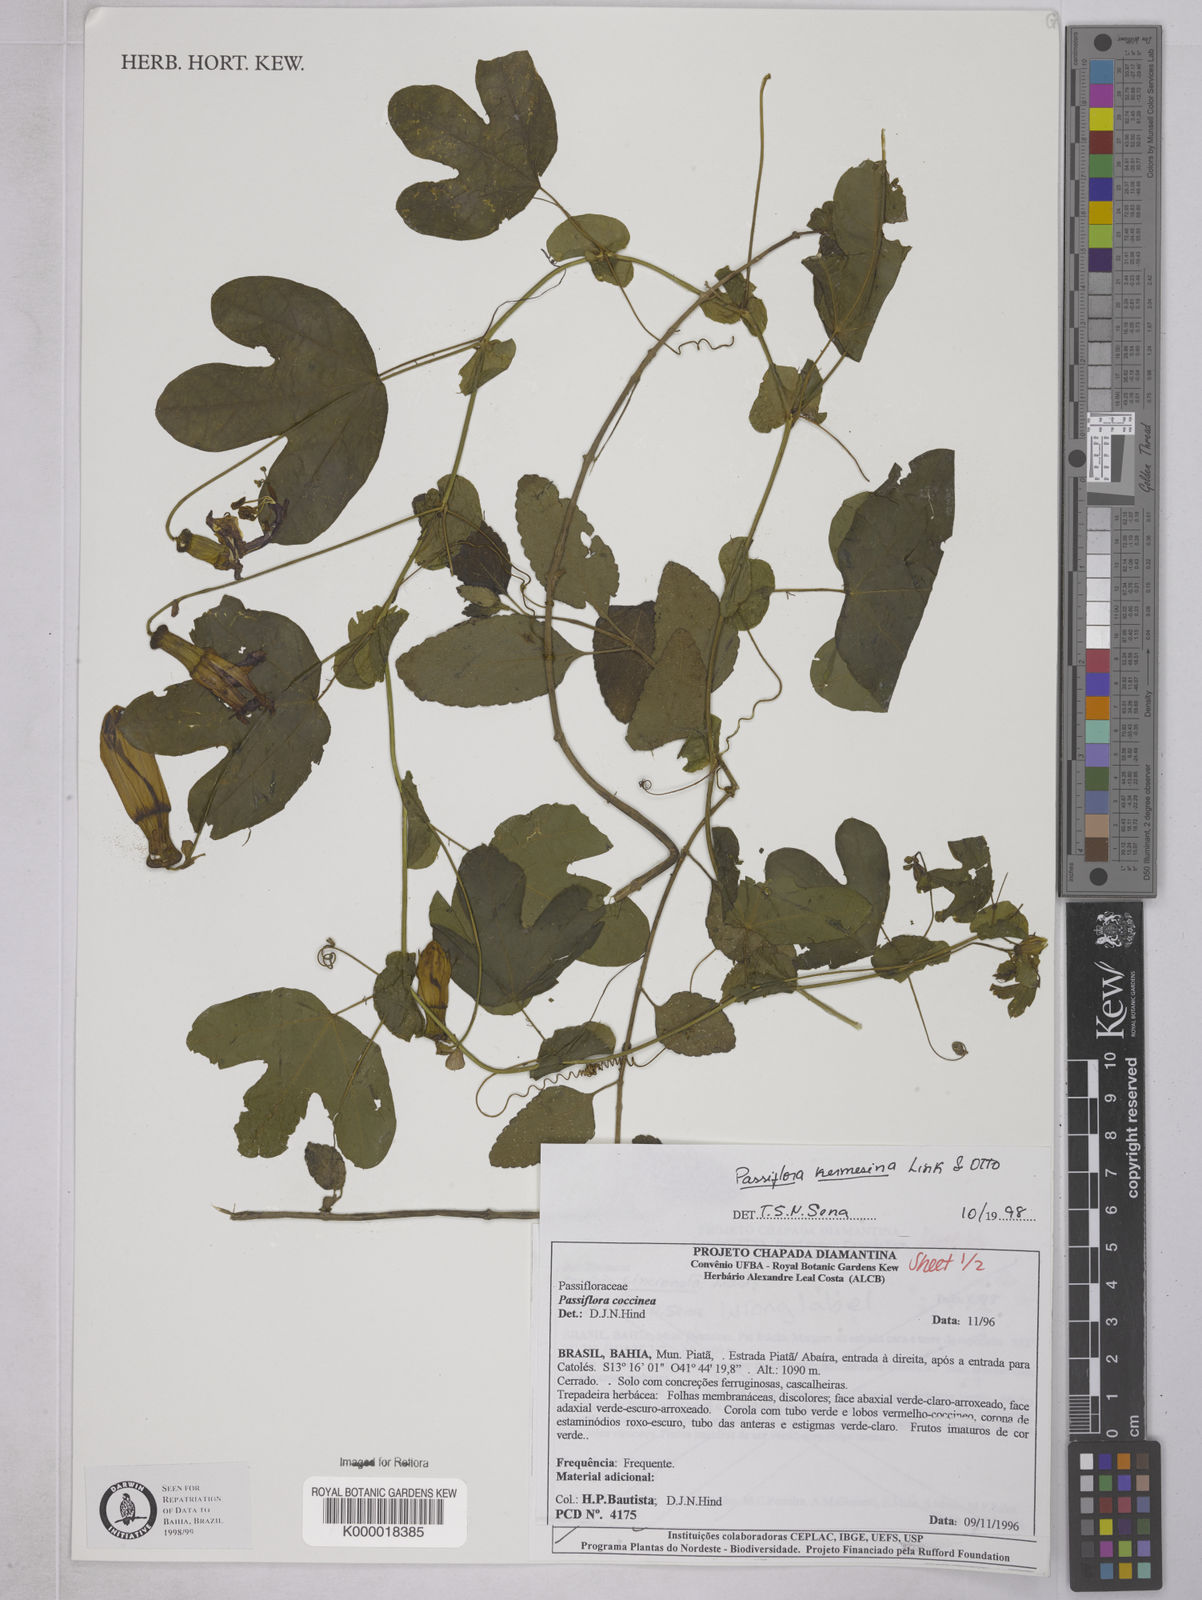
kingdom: Plantae
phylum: Tracheophyta
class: Magnoliopsida
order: Malpighiales
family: Passifloraceae
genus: Passiflora
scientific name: Passiflora kermesina
